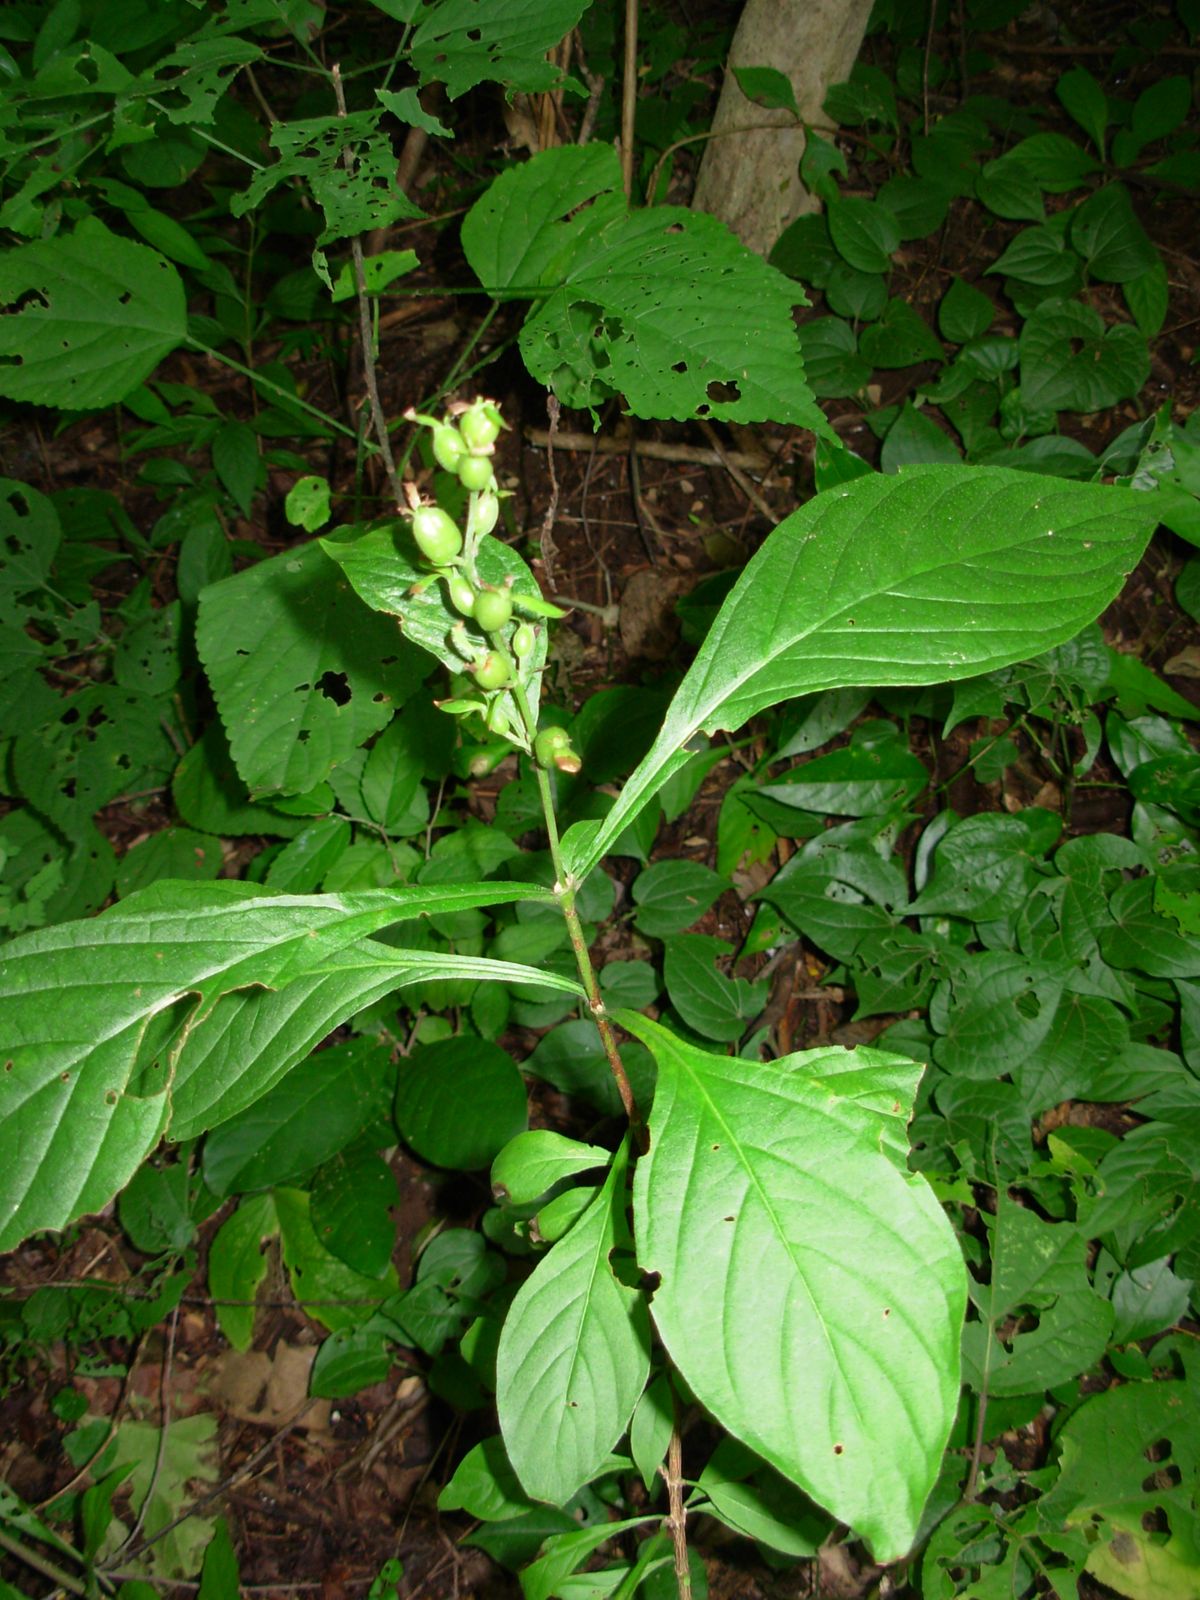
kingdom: Plantae
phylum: Tracheophyta
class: Magnoliopsida
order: Gentianales
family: Rubiaceae
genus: Arachnothryx
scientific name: Arachnothryx thiemei
